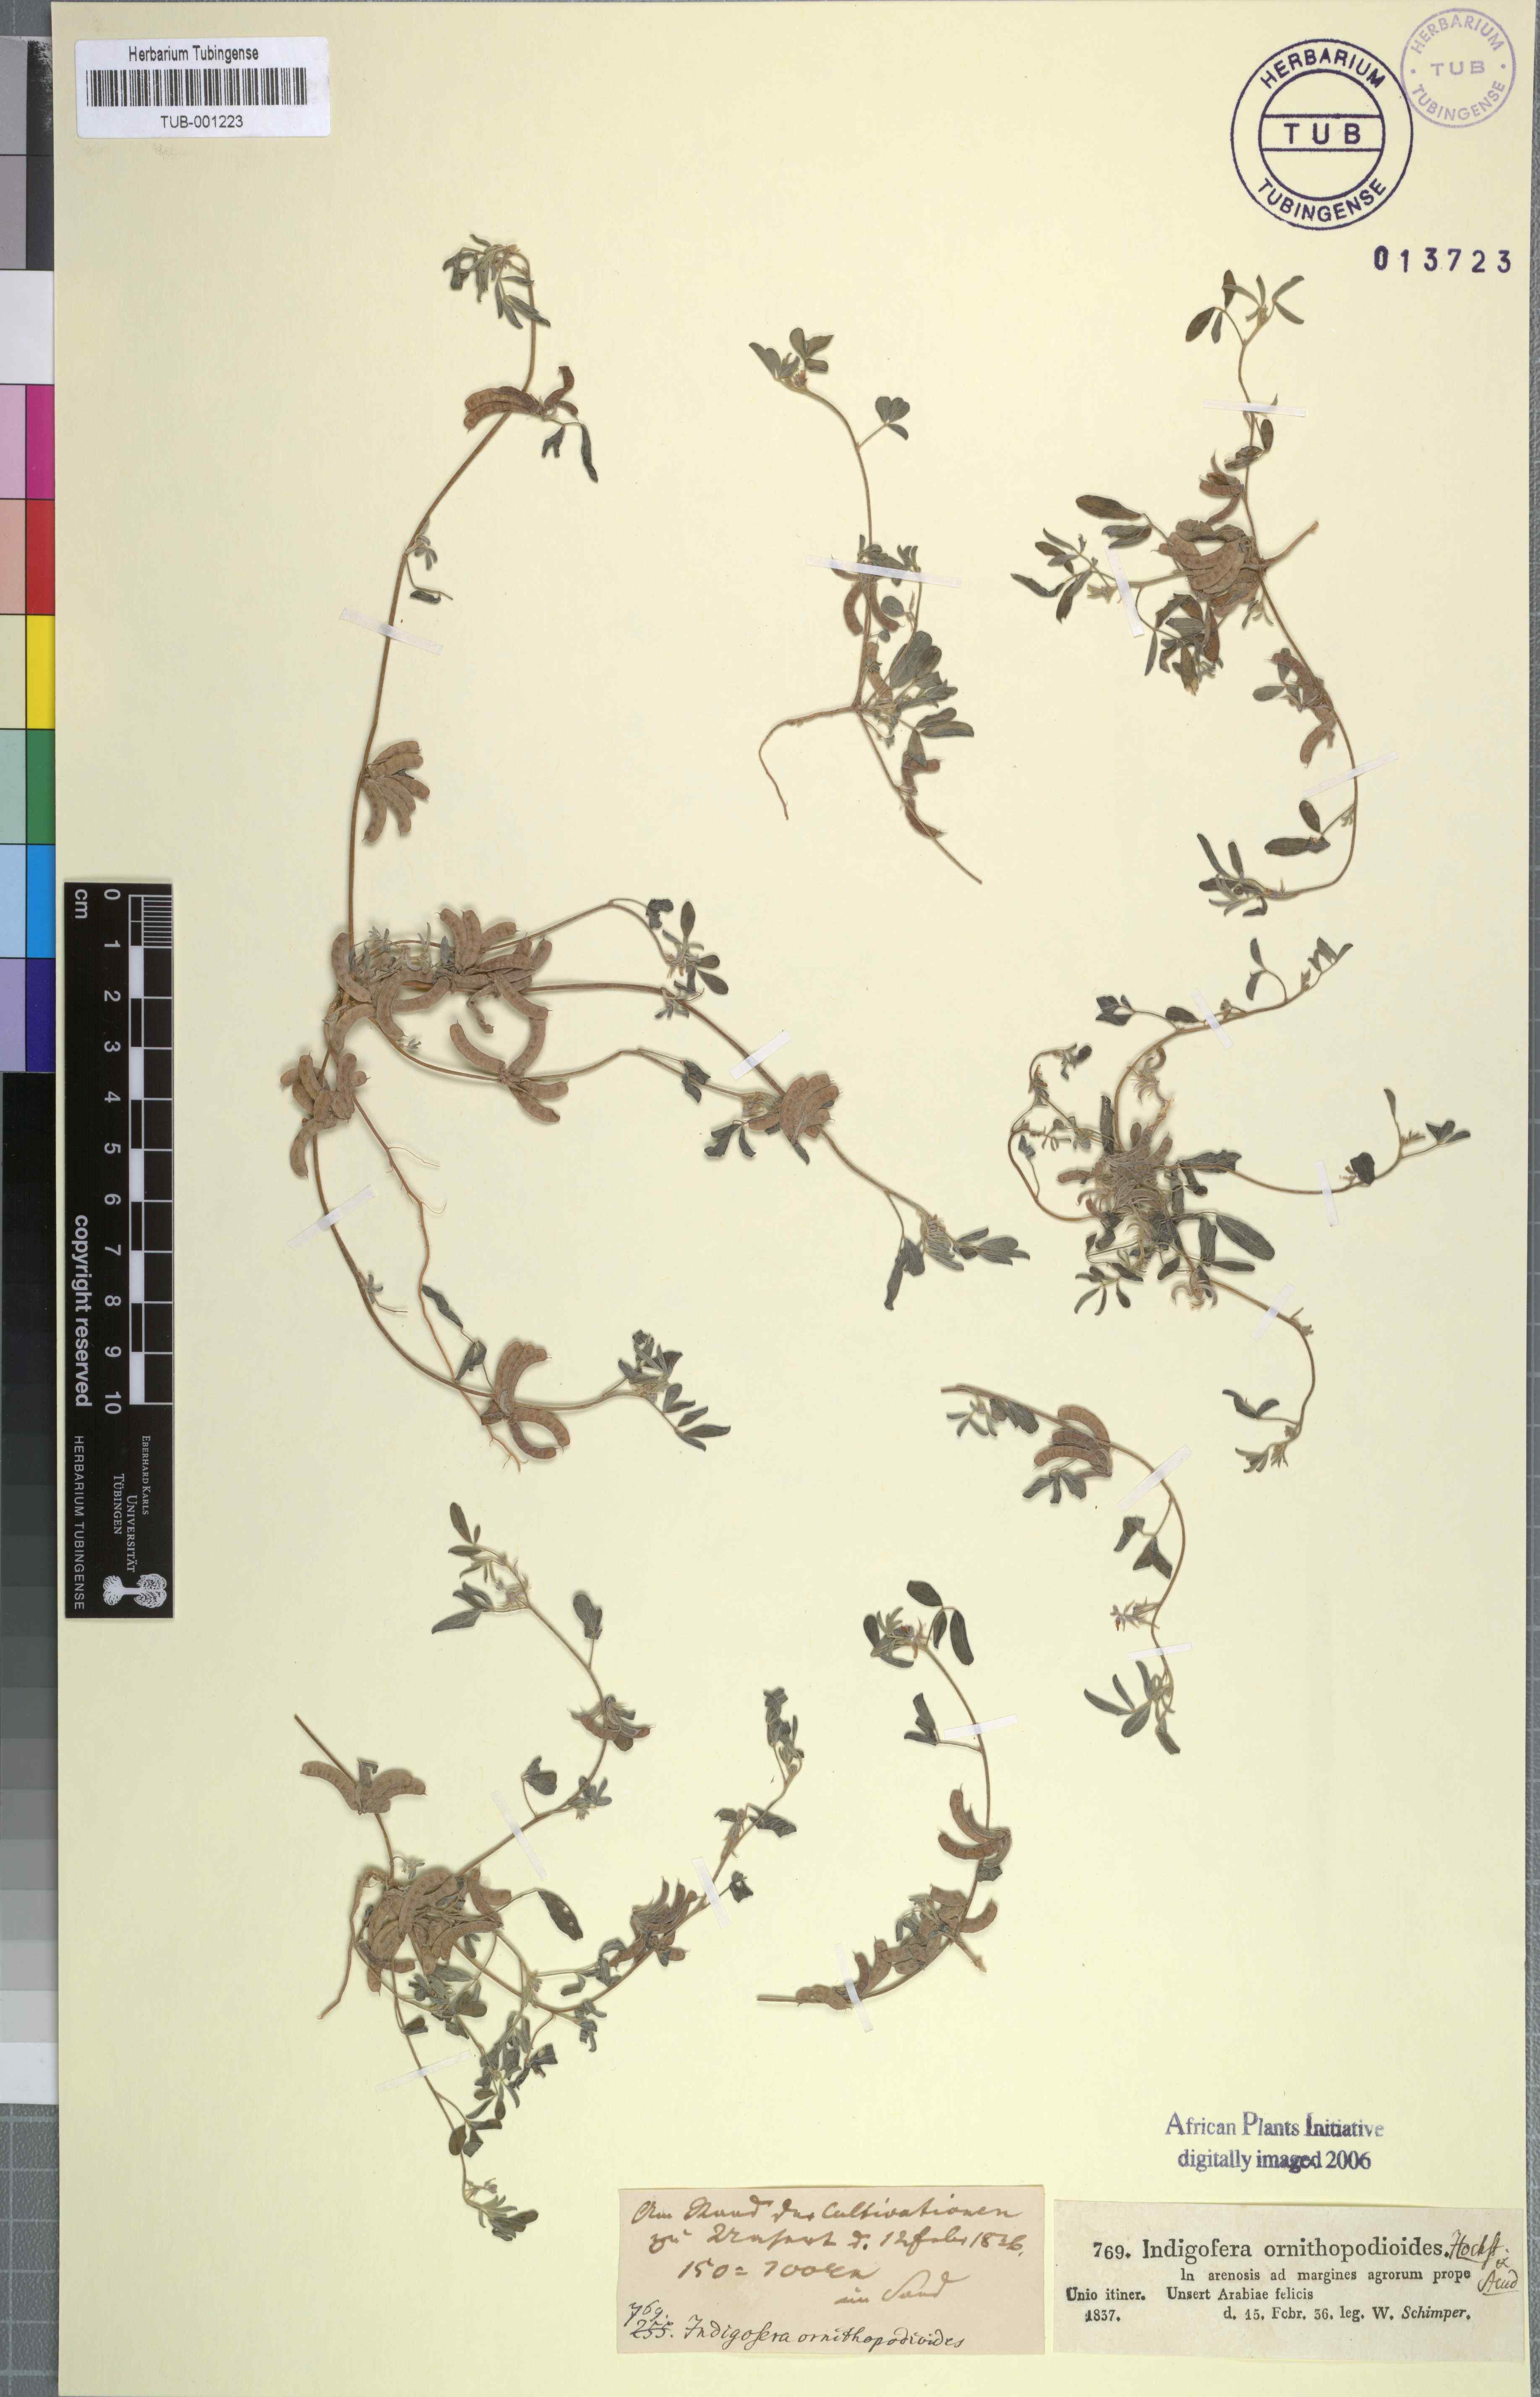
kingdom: Plantae
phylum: Tracheophyta
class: Magnoliopsida
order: Fabales
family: Fabaceae
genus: Indigofera
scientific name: Indigofera hochstetteri
